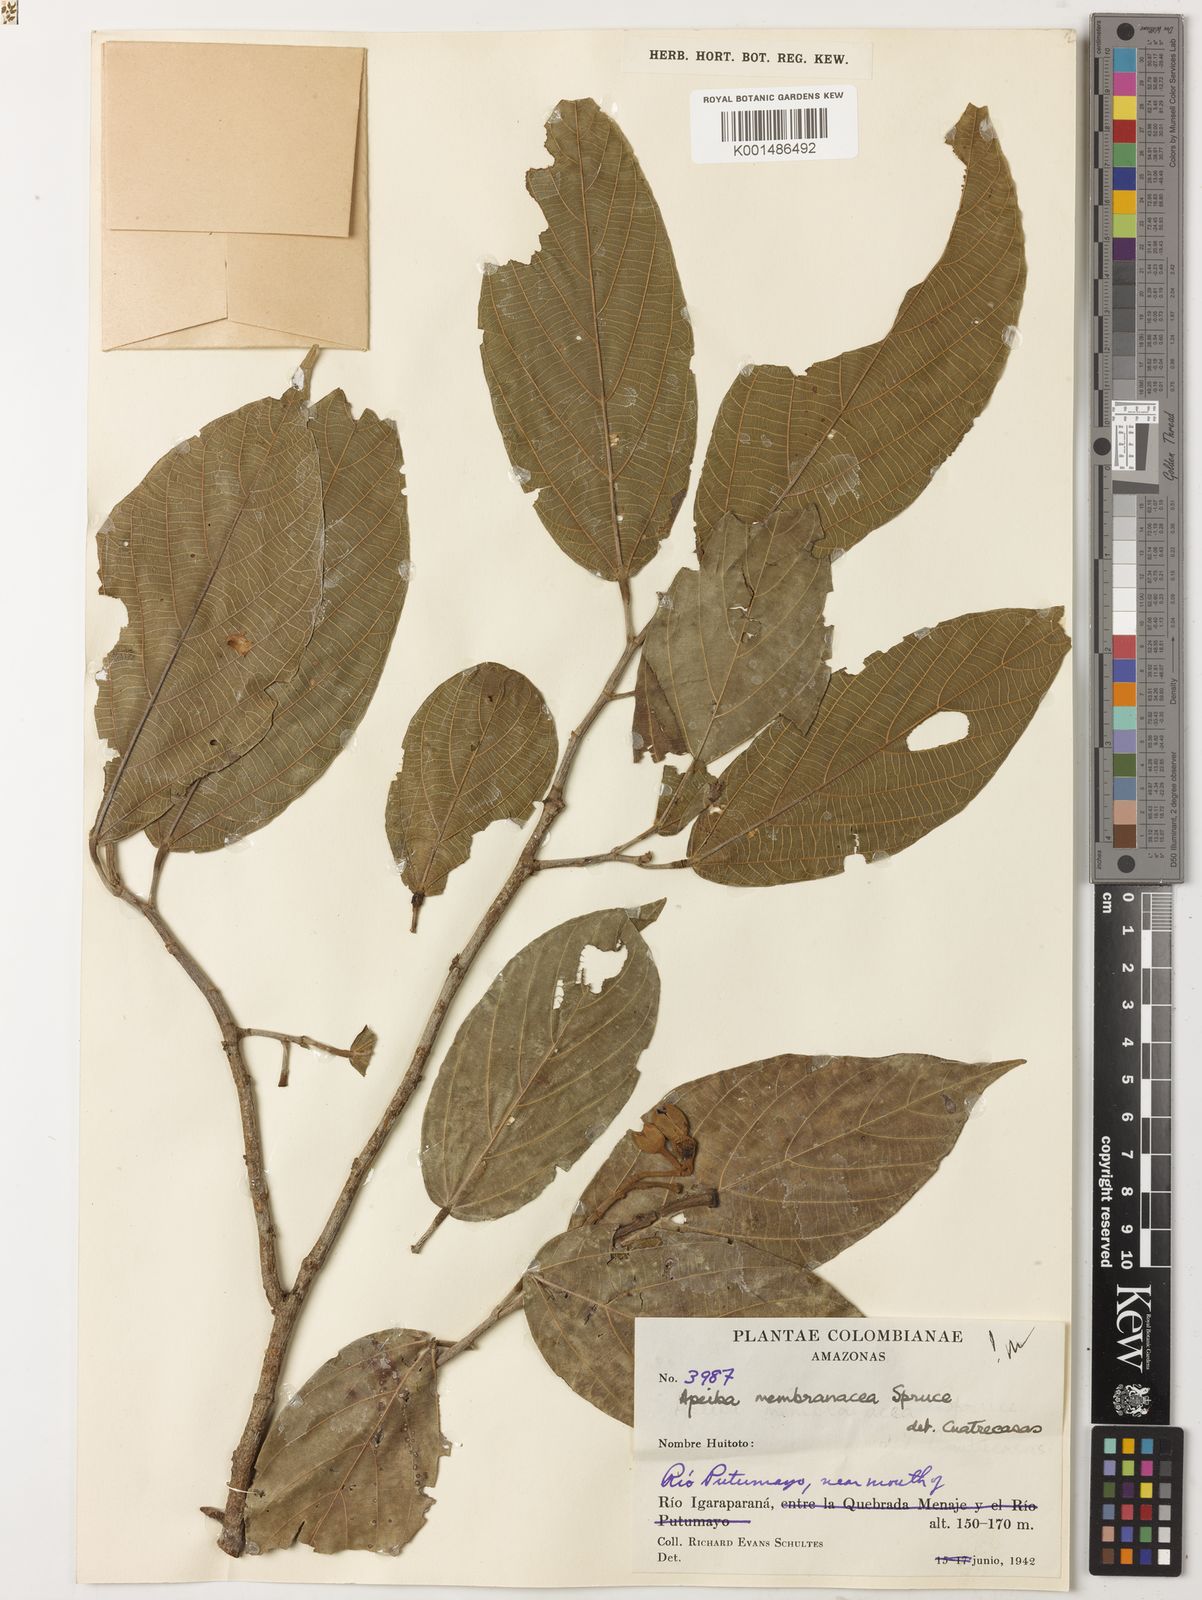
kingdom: Plantae
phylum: Tracheophyta
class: Magnoliopsida
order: Malvales
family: Malvaceae
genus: Apeiba
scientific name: Apeiba membranacea
